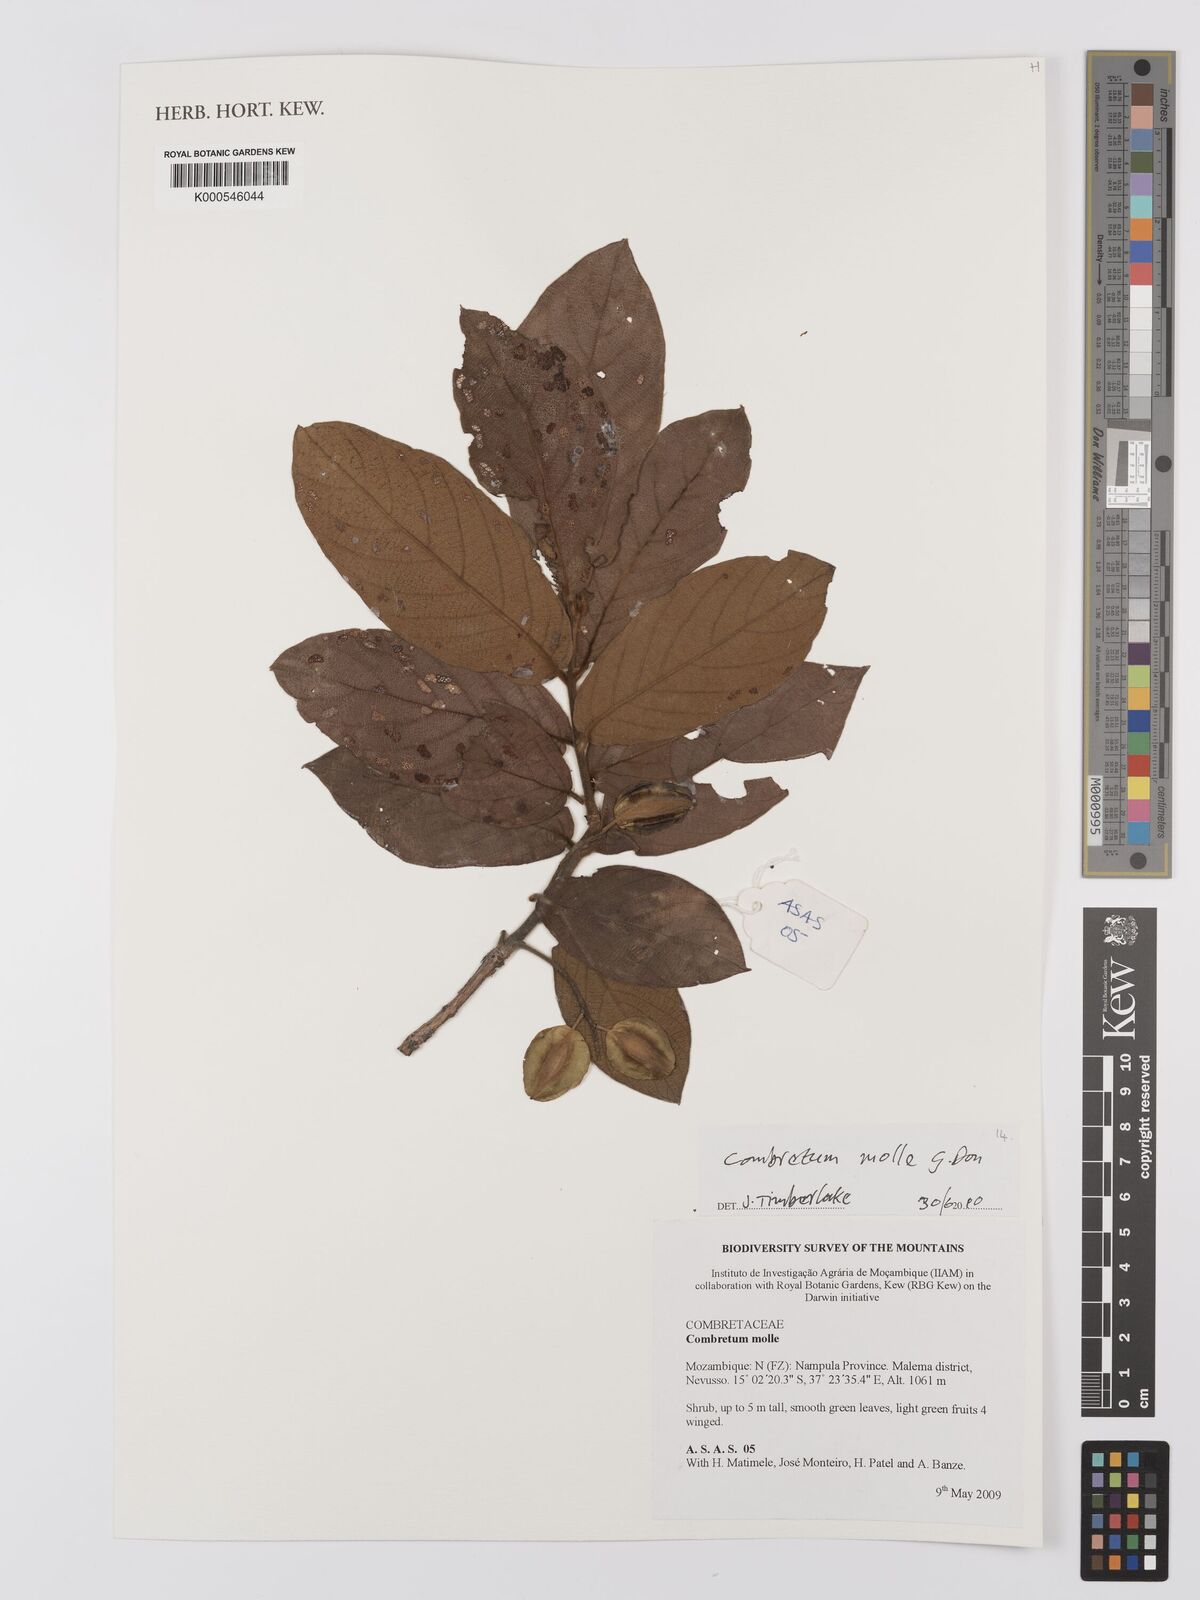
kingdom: Plantae
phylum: Tracheophyta
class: Magnoliopsida
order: Myrtales
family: Combretaceae
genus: Combretum
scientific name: Combretum molle
